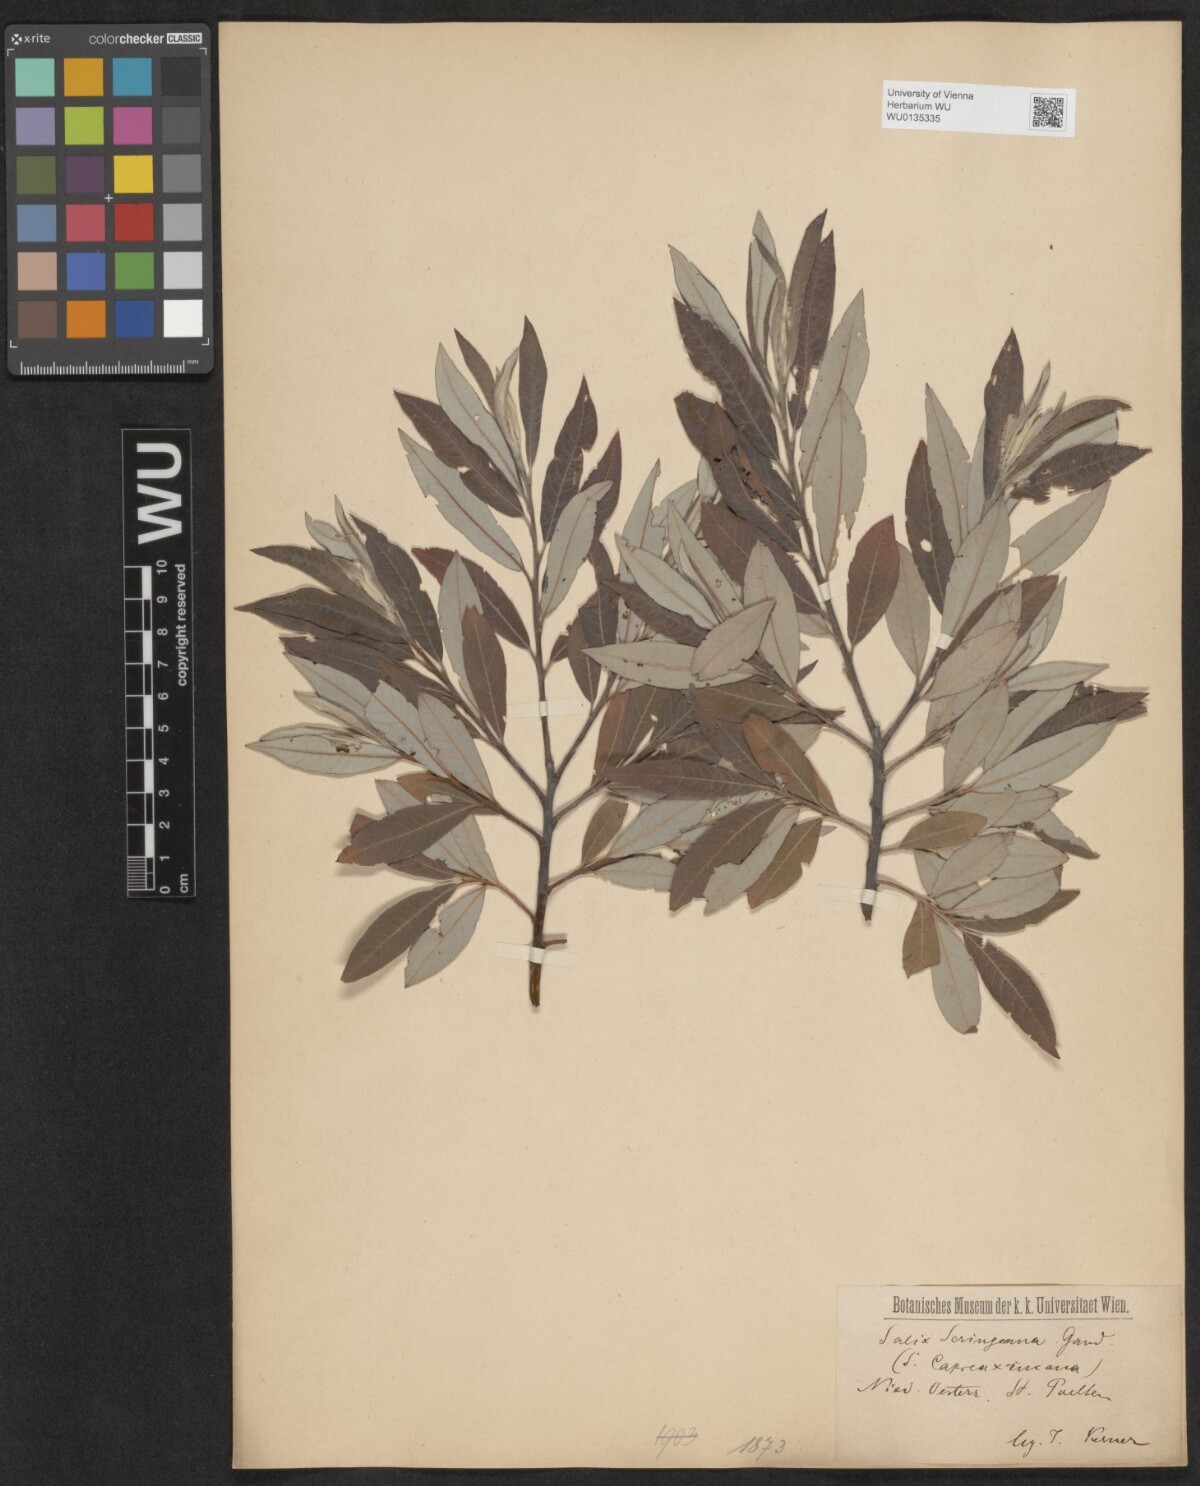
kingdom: Plantae
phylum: Tracheophyta
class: Magnoliopsida
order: Malpighiales
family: Salicaceae
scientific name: Salicaceae
